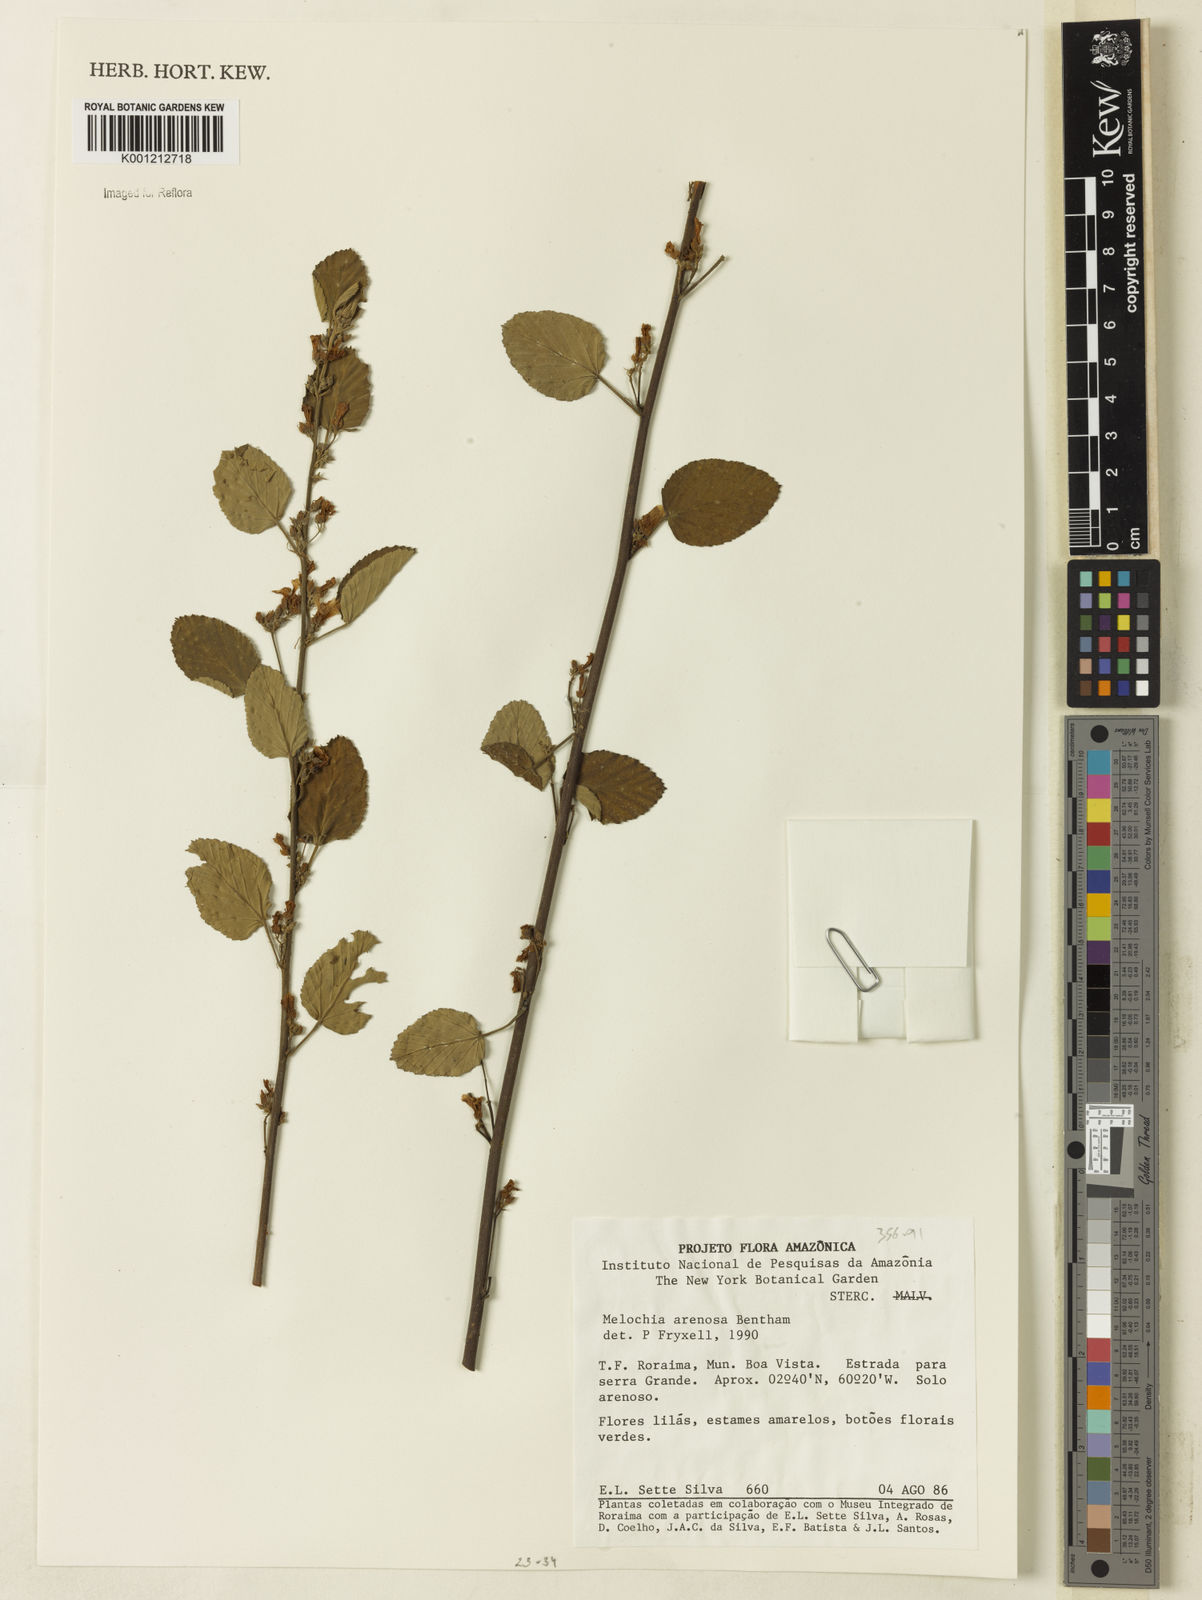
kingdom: Plantae
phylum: Tracheophyta
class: Magnoliopsida
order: Malvales
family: Malvaceae
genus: Melochia
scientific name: Melochia arenosa
